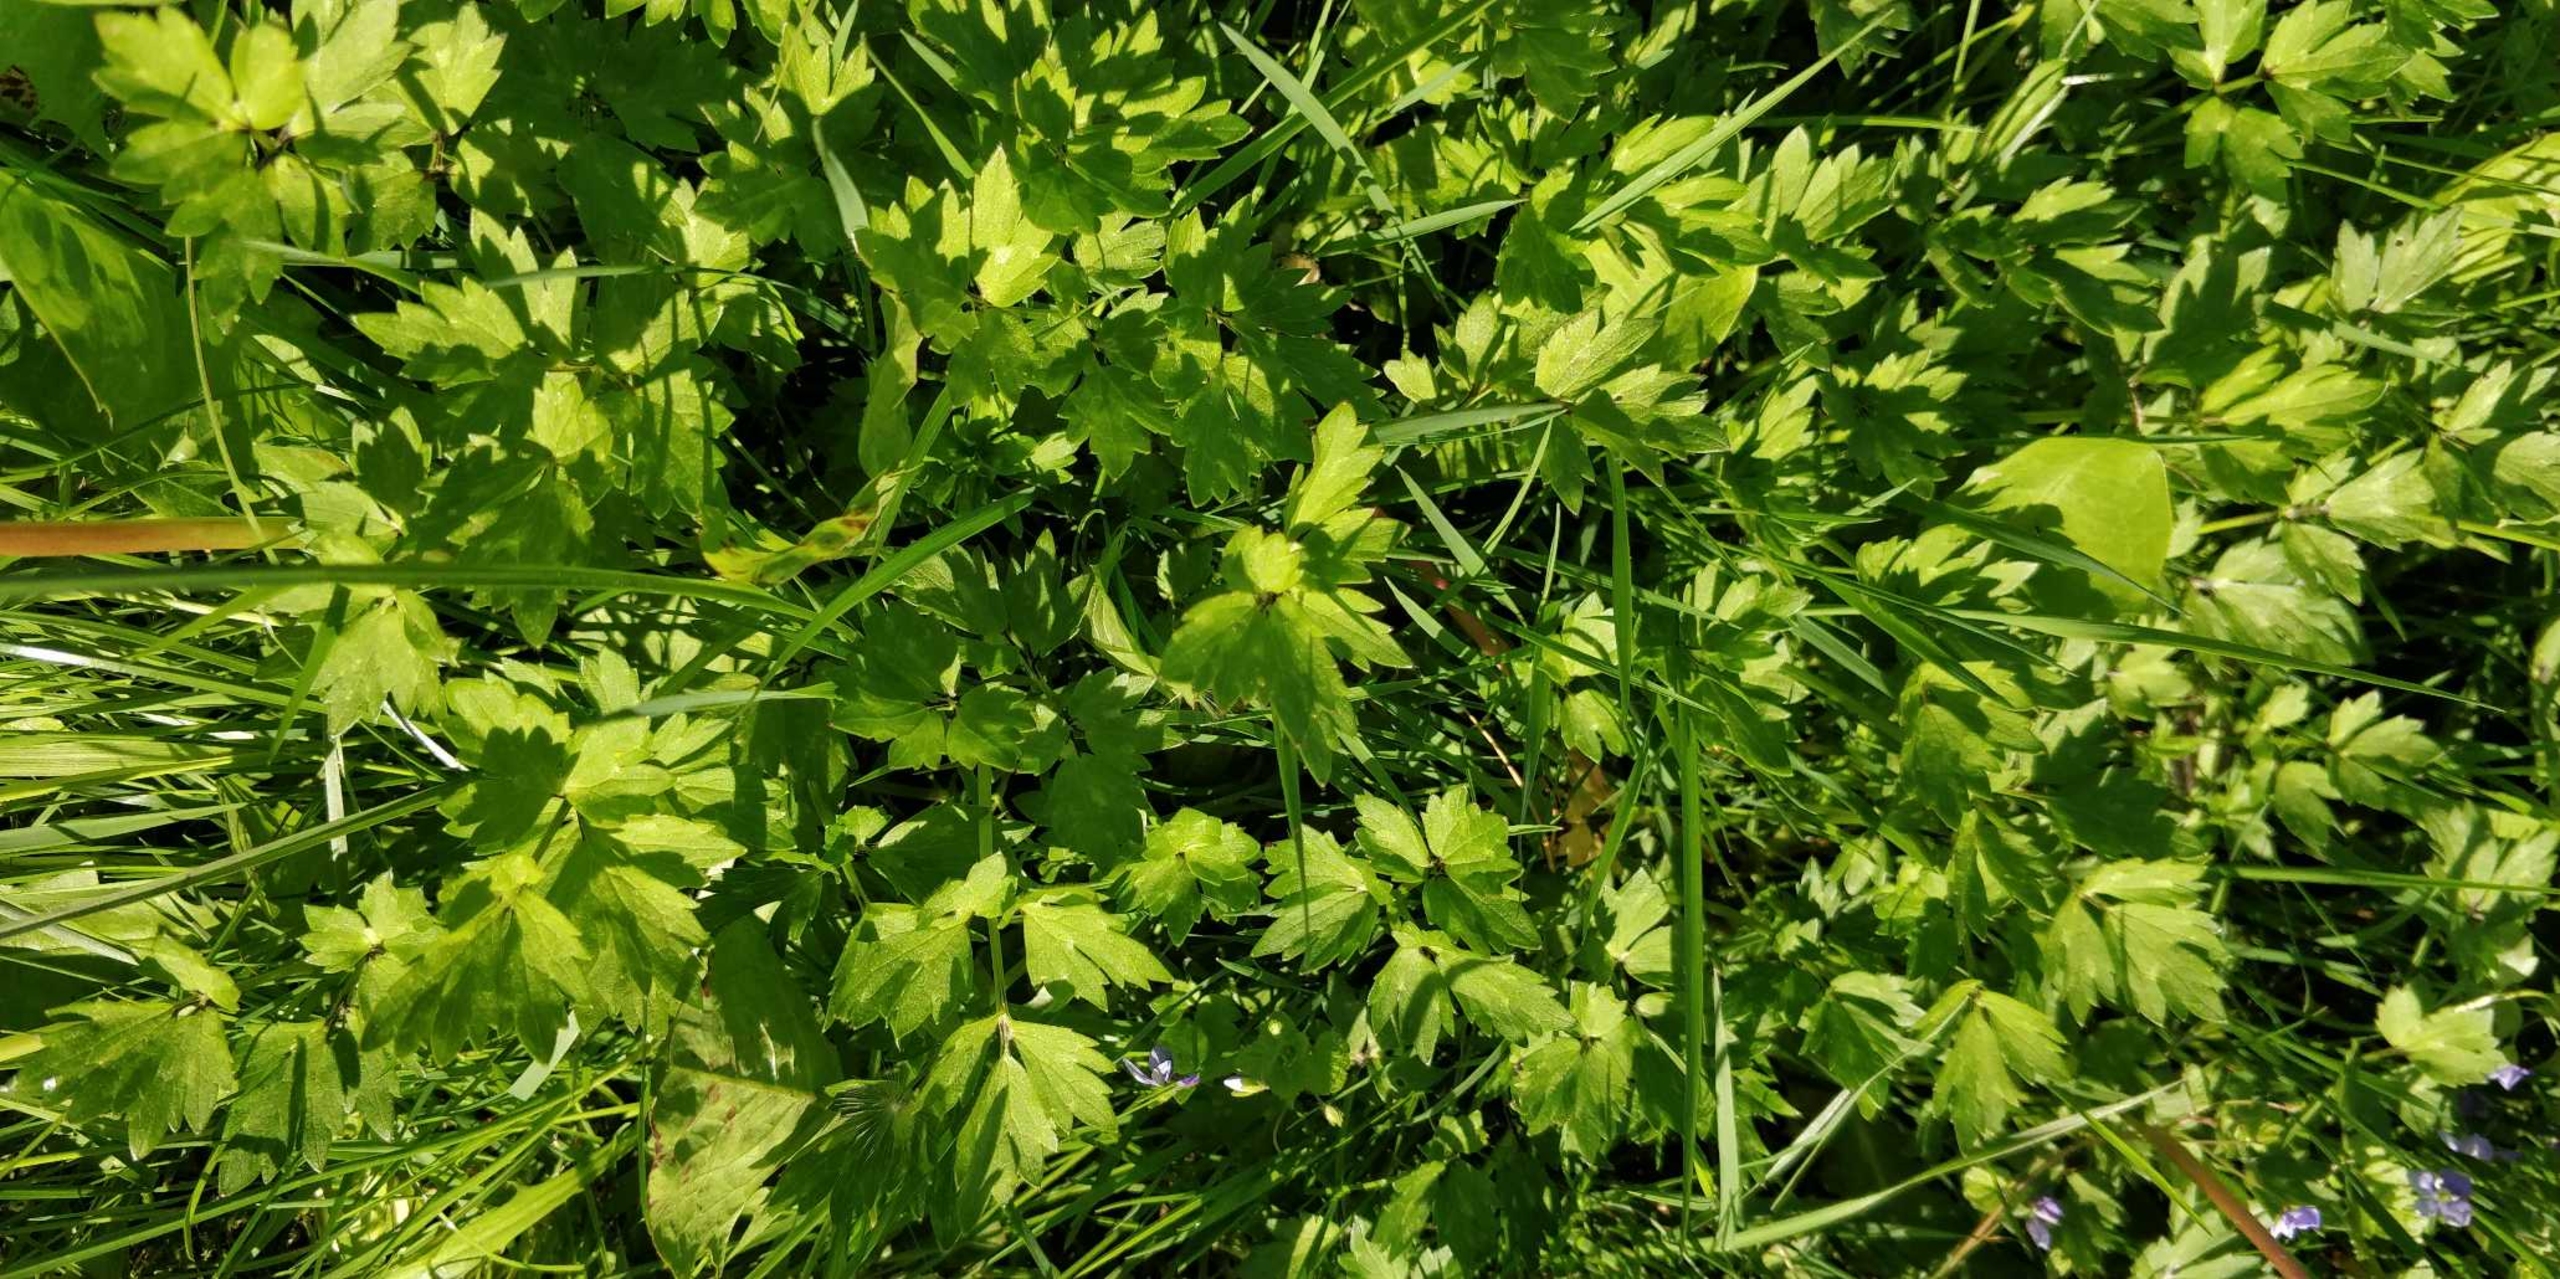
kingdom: Plantae
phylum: Tracheophyta
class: Magnoliopsida
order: Ranunculales
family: Ranunculaceae
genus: Ranunculus
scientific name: Ranunculus repens
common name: Lav ranunkel
